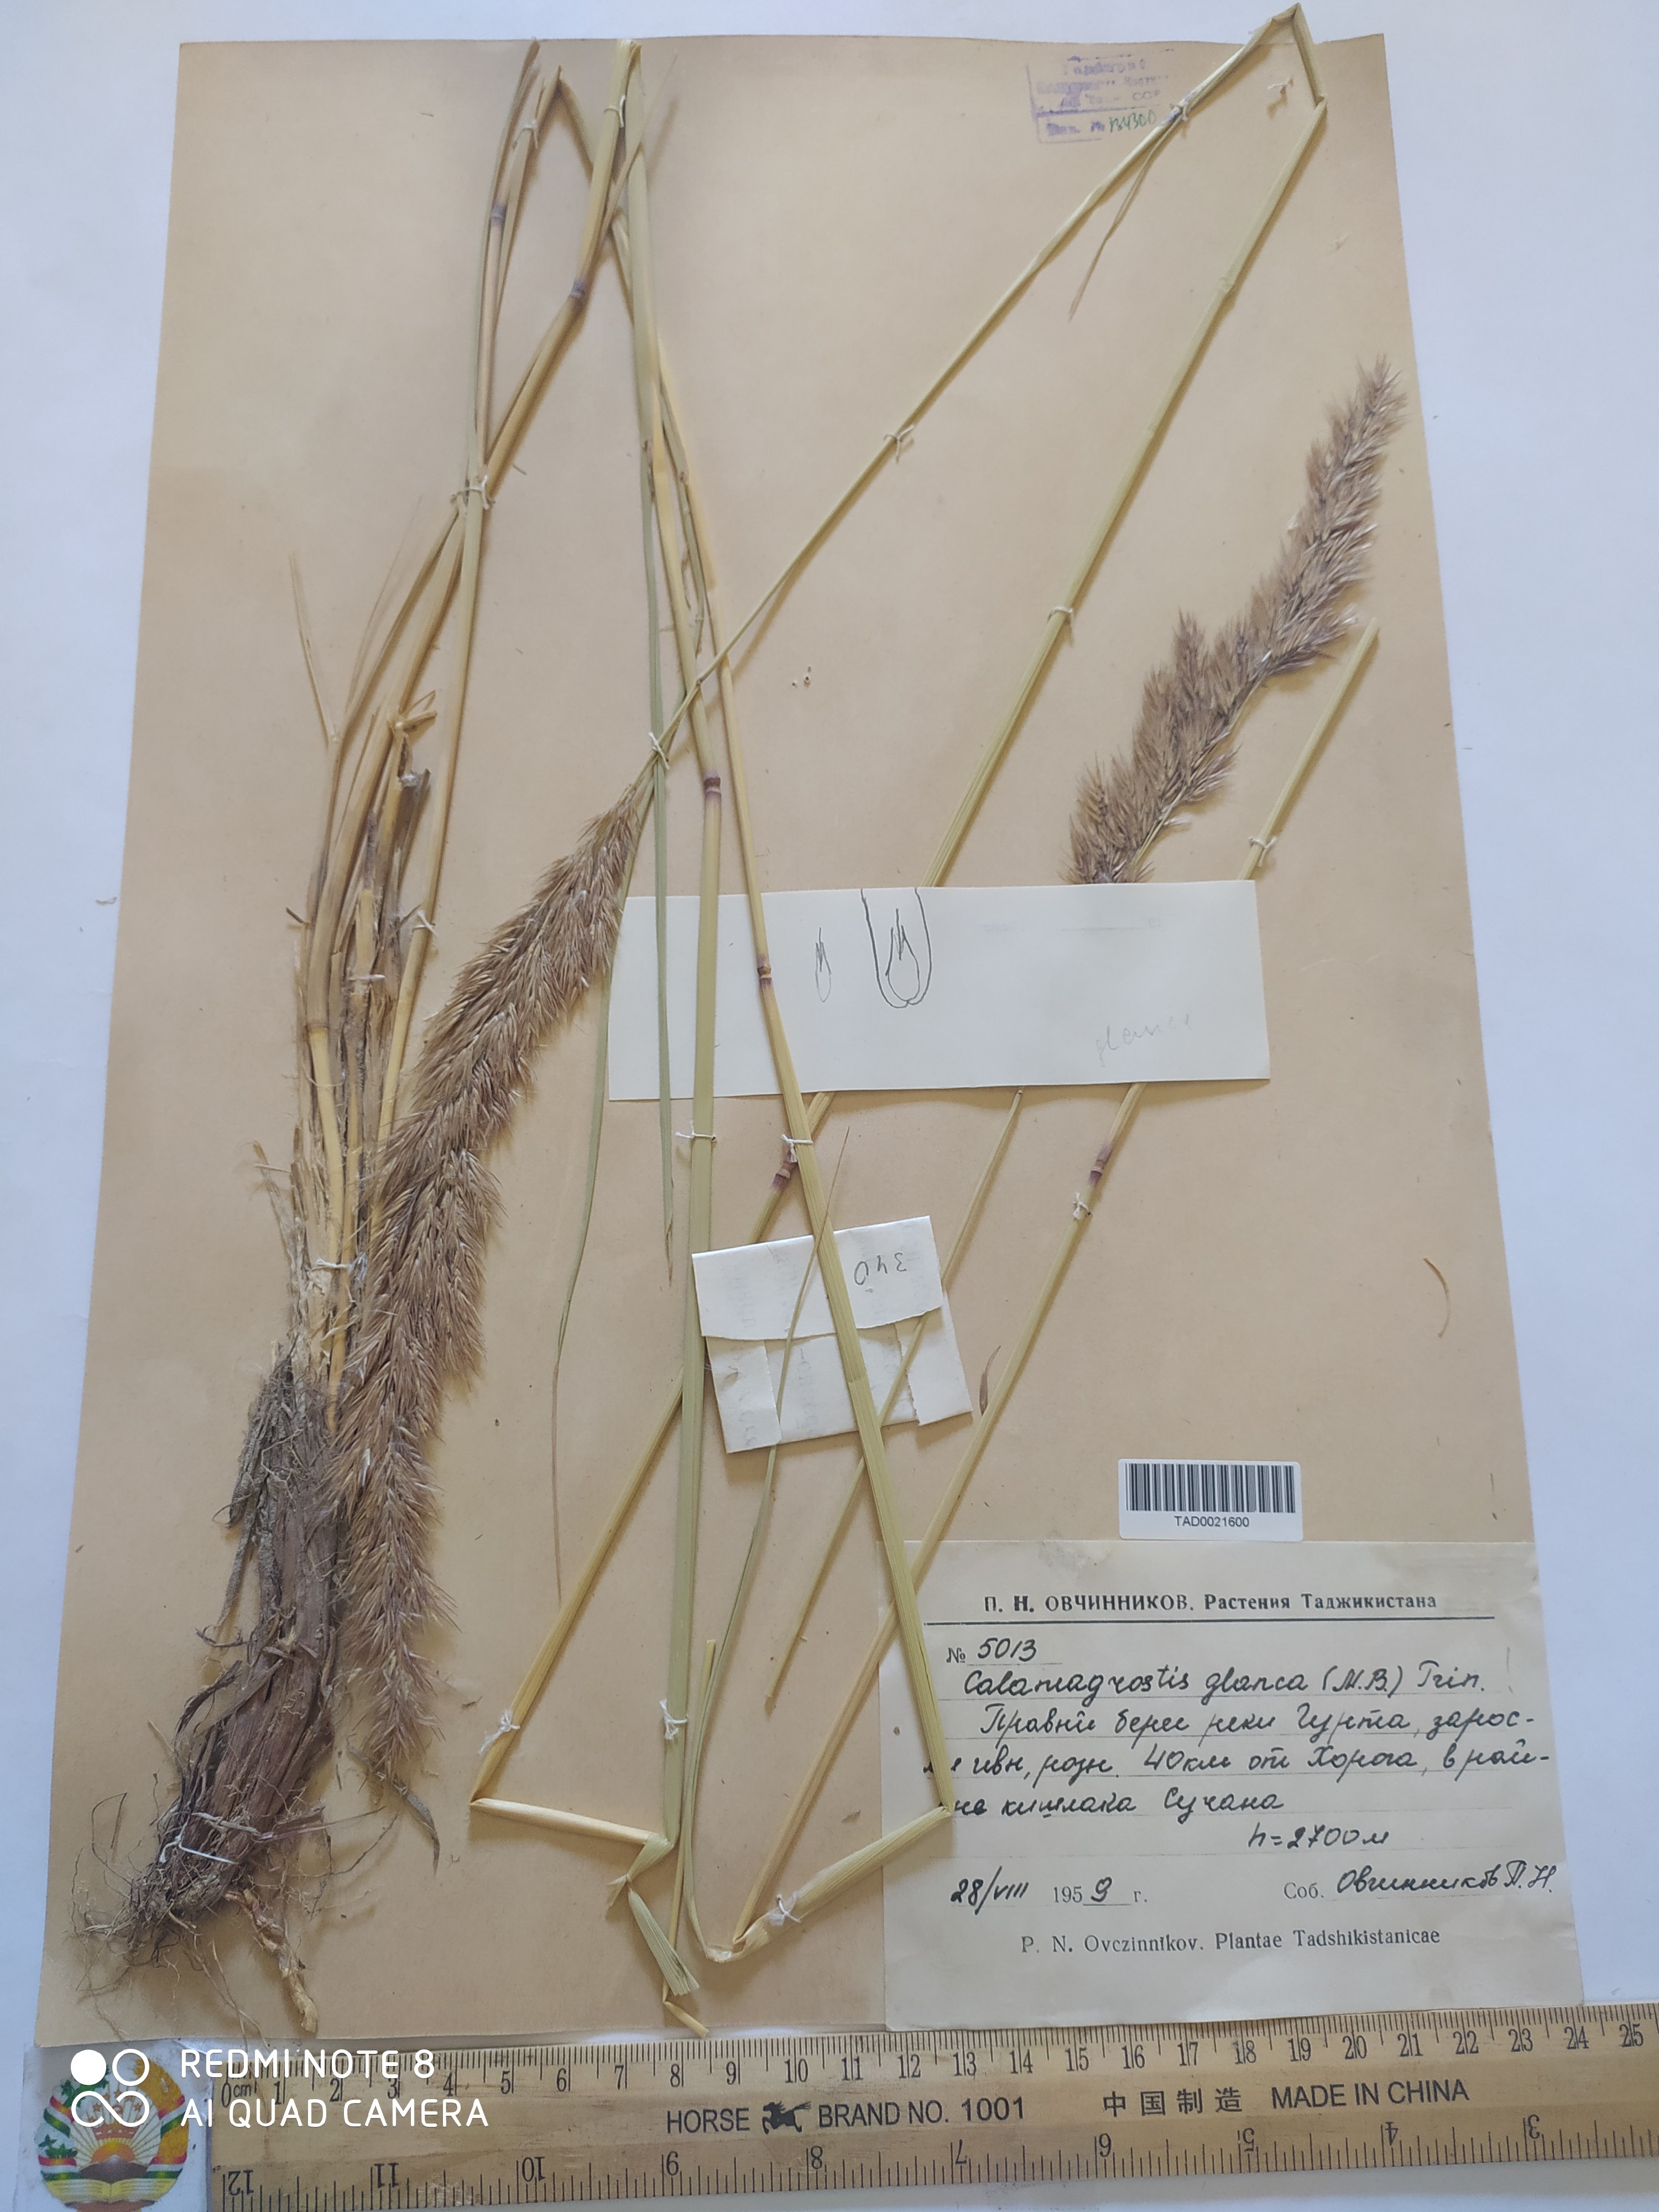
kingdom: Plantae
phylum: Tracheophyta
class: Liliopsida
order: Poales
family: Poaceae
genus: Calamagrostis
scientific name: Calamagrostis pseudophragmites
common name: Coastal small-reed
